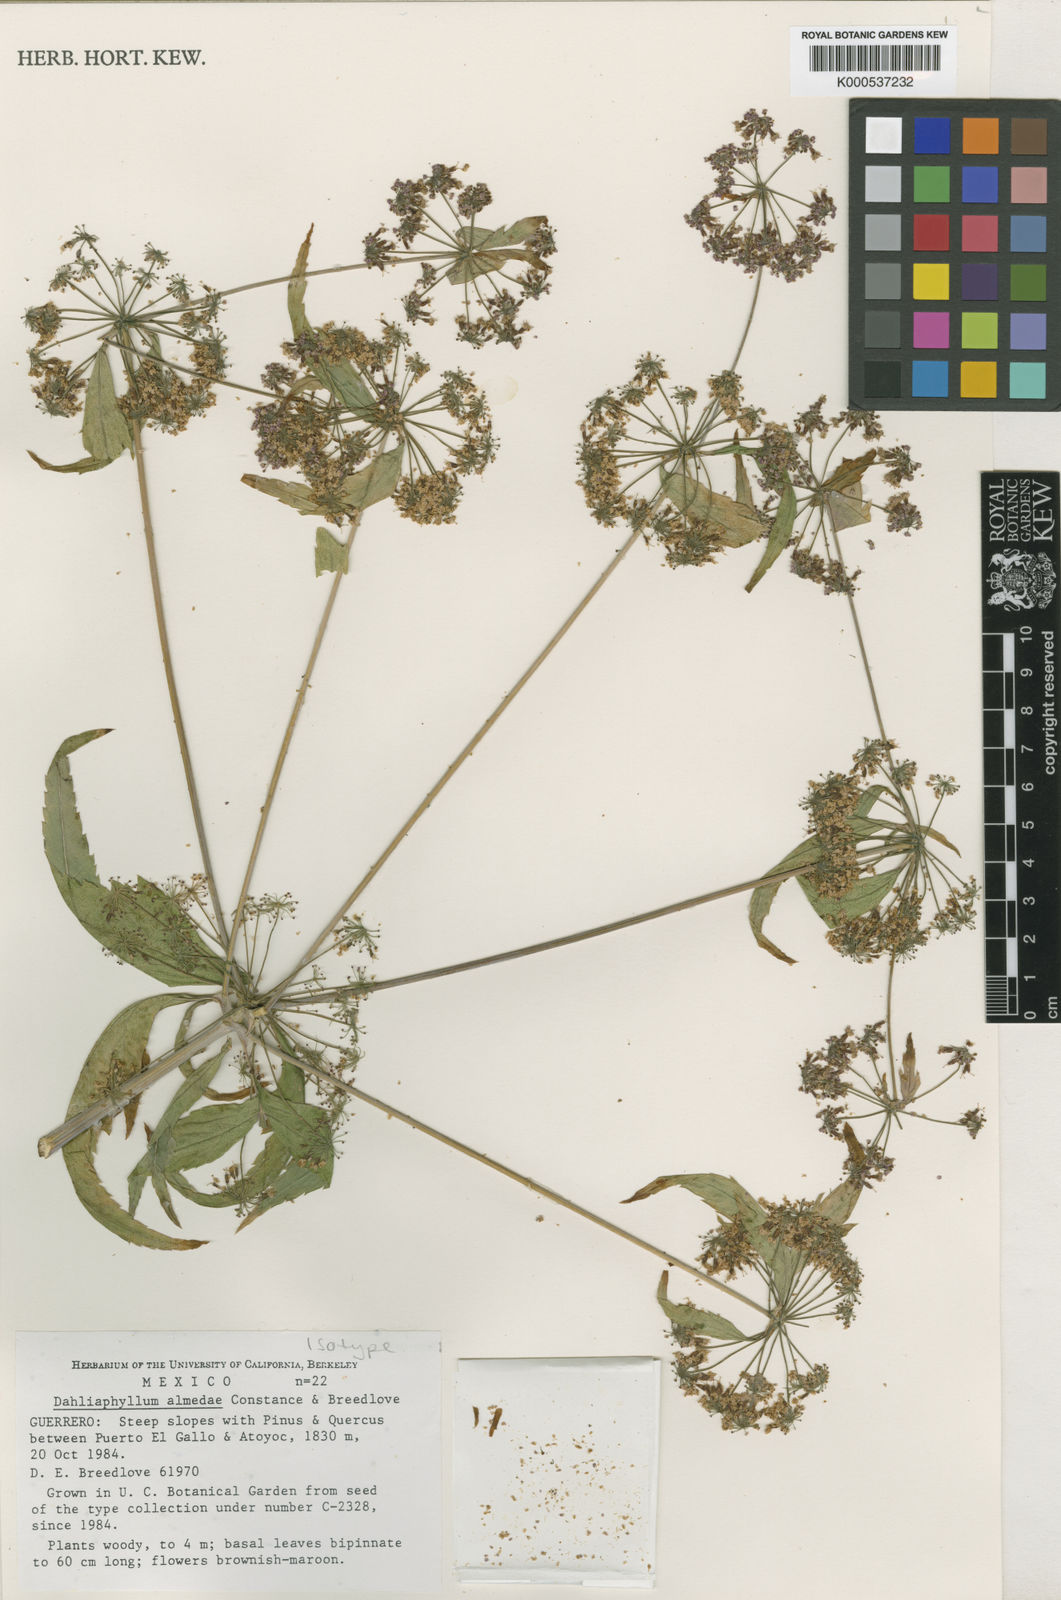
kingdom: Plantae
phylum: Tracheophyta
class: Magnoliopsida
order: Apiales
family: Apiaceae
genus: Dahliaphyllum
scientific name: Dahliaphyllum almedae
